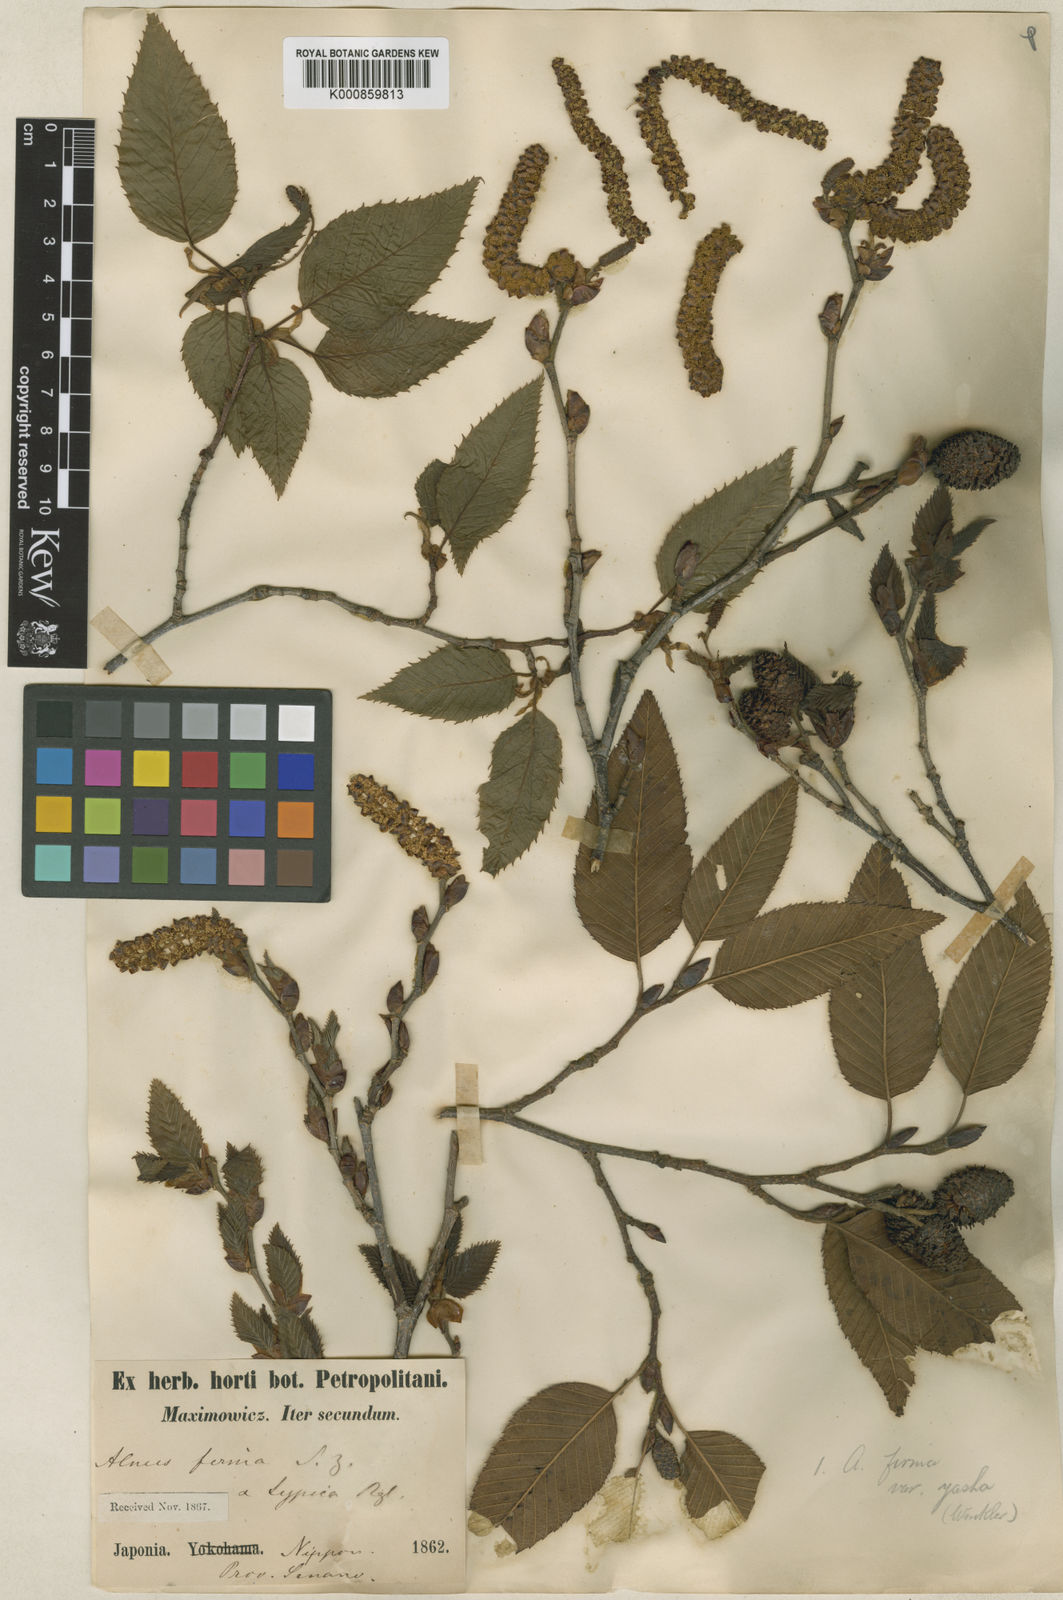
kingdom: Plantae
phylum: Tracheophyta
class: Magnoliopsida
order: Fagales
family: Betulaceae
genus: Alnus
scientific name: Alnus firma
